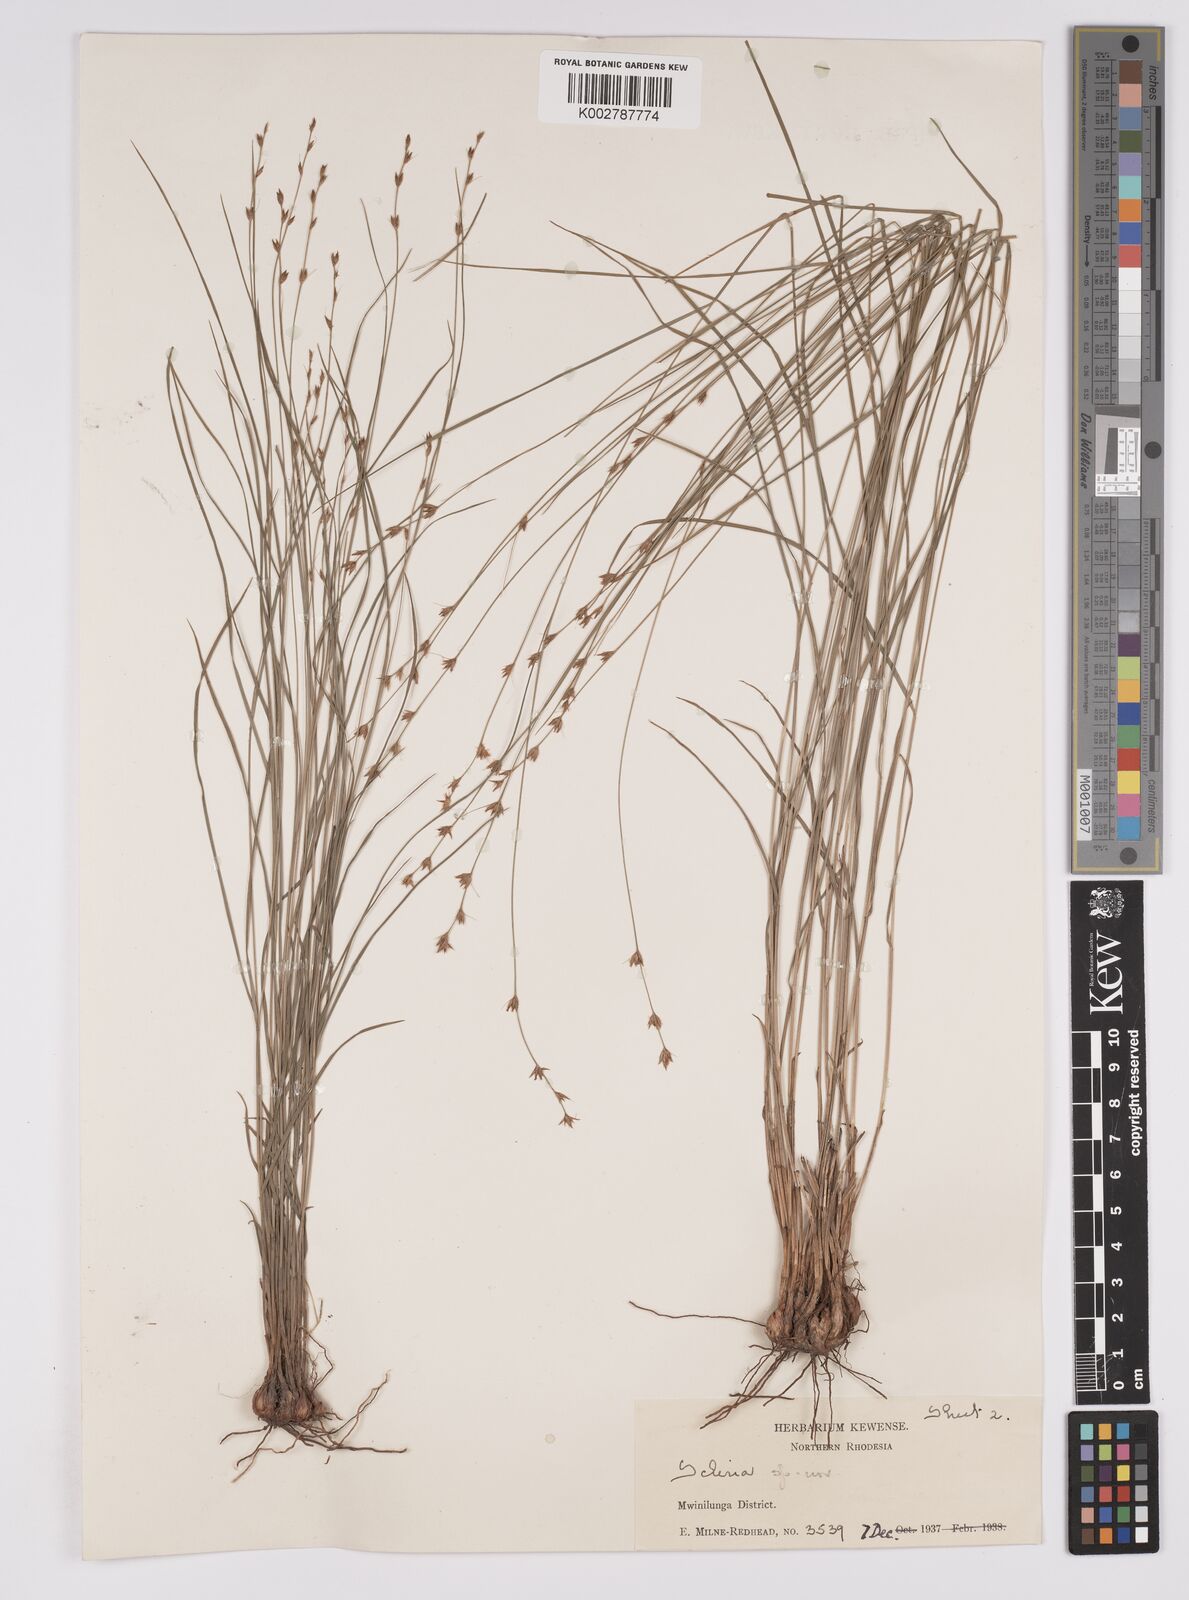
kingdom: Plantae
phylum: Tracheophyta
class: Liliopsida
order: Poales
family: Cyperaceae
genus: Scleria
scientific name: Scleria bulbifera
